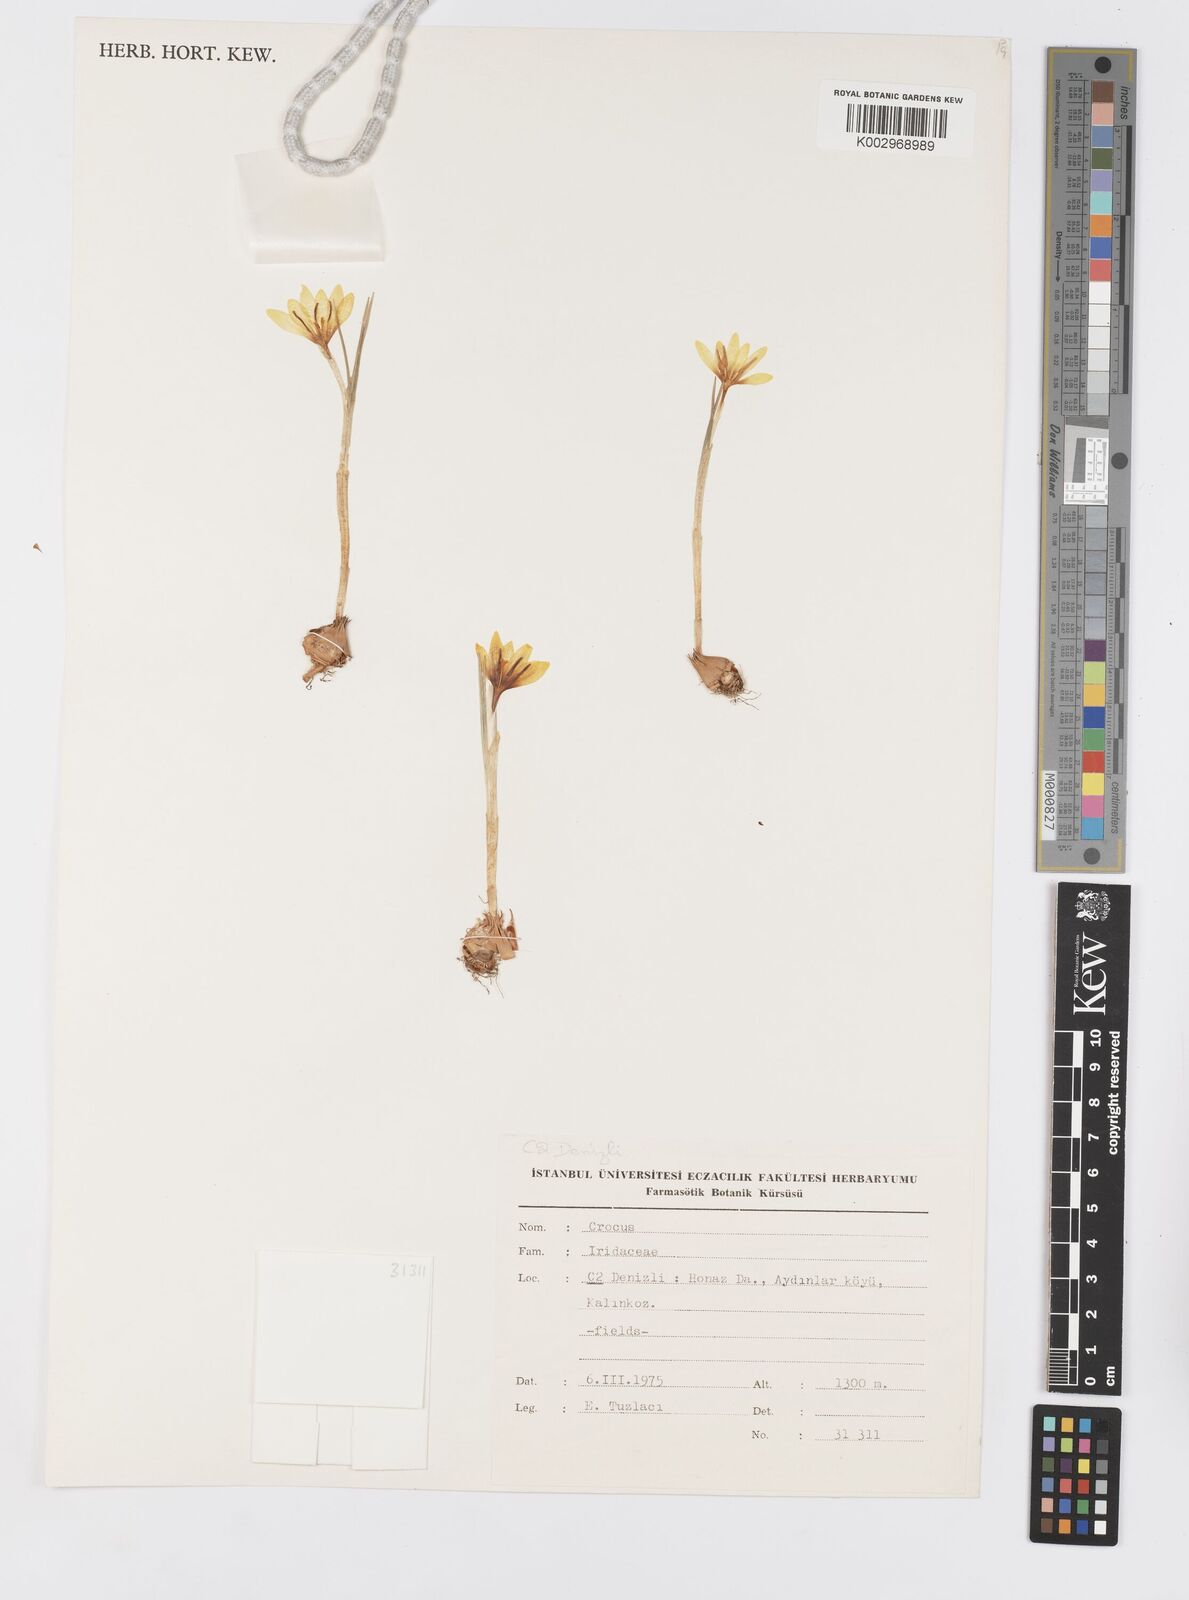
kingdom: Plantae
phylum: Tracheophyta
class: Liliopsida
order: Asparagales
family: Iridaceae
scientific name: Iridaceae
